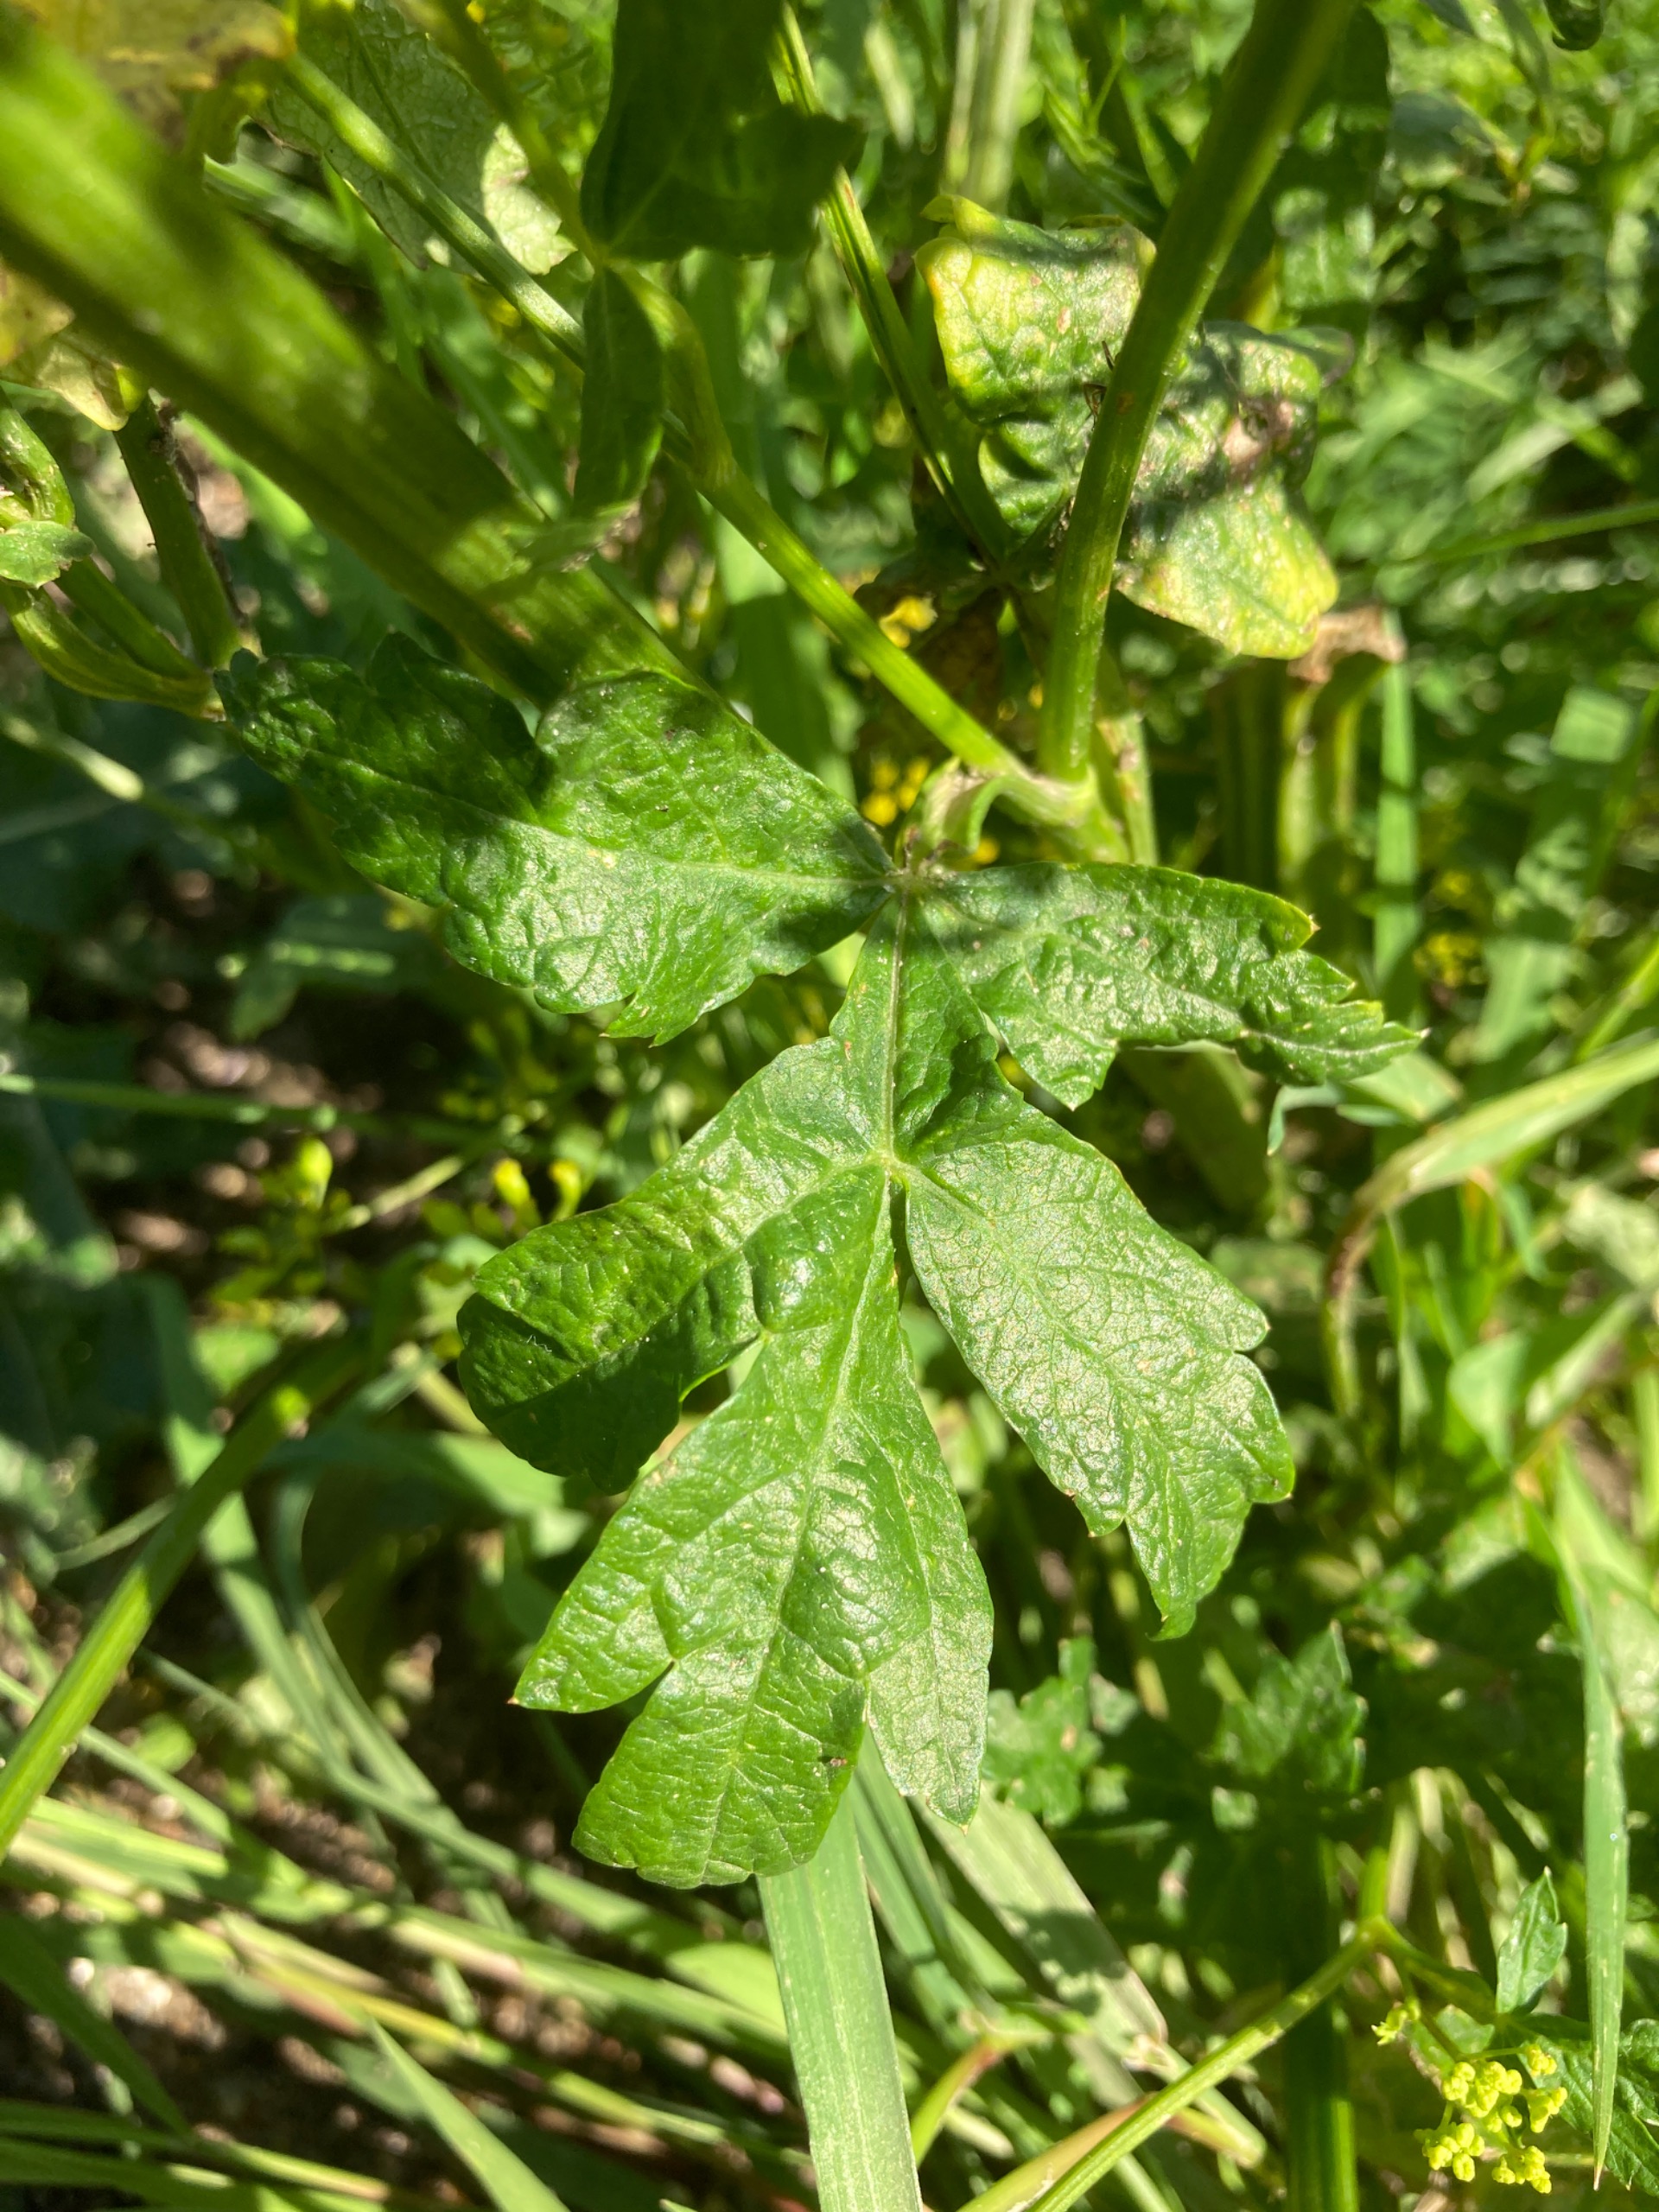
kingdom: Plantae
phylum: Tracheophyta
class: Magnoliopsida
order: Apiales
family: Apiaceae
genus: Pastinaca
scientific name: Pastinaca sativa
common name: Pastinak
